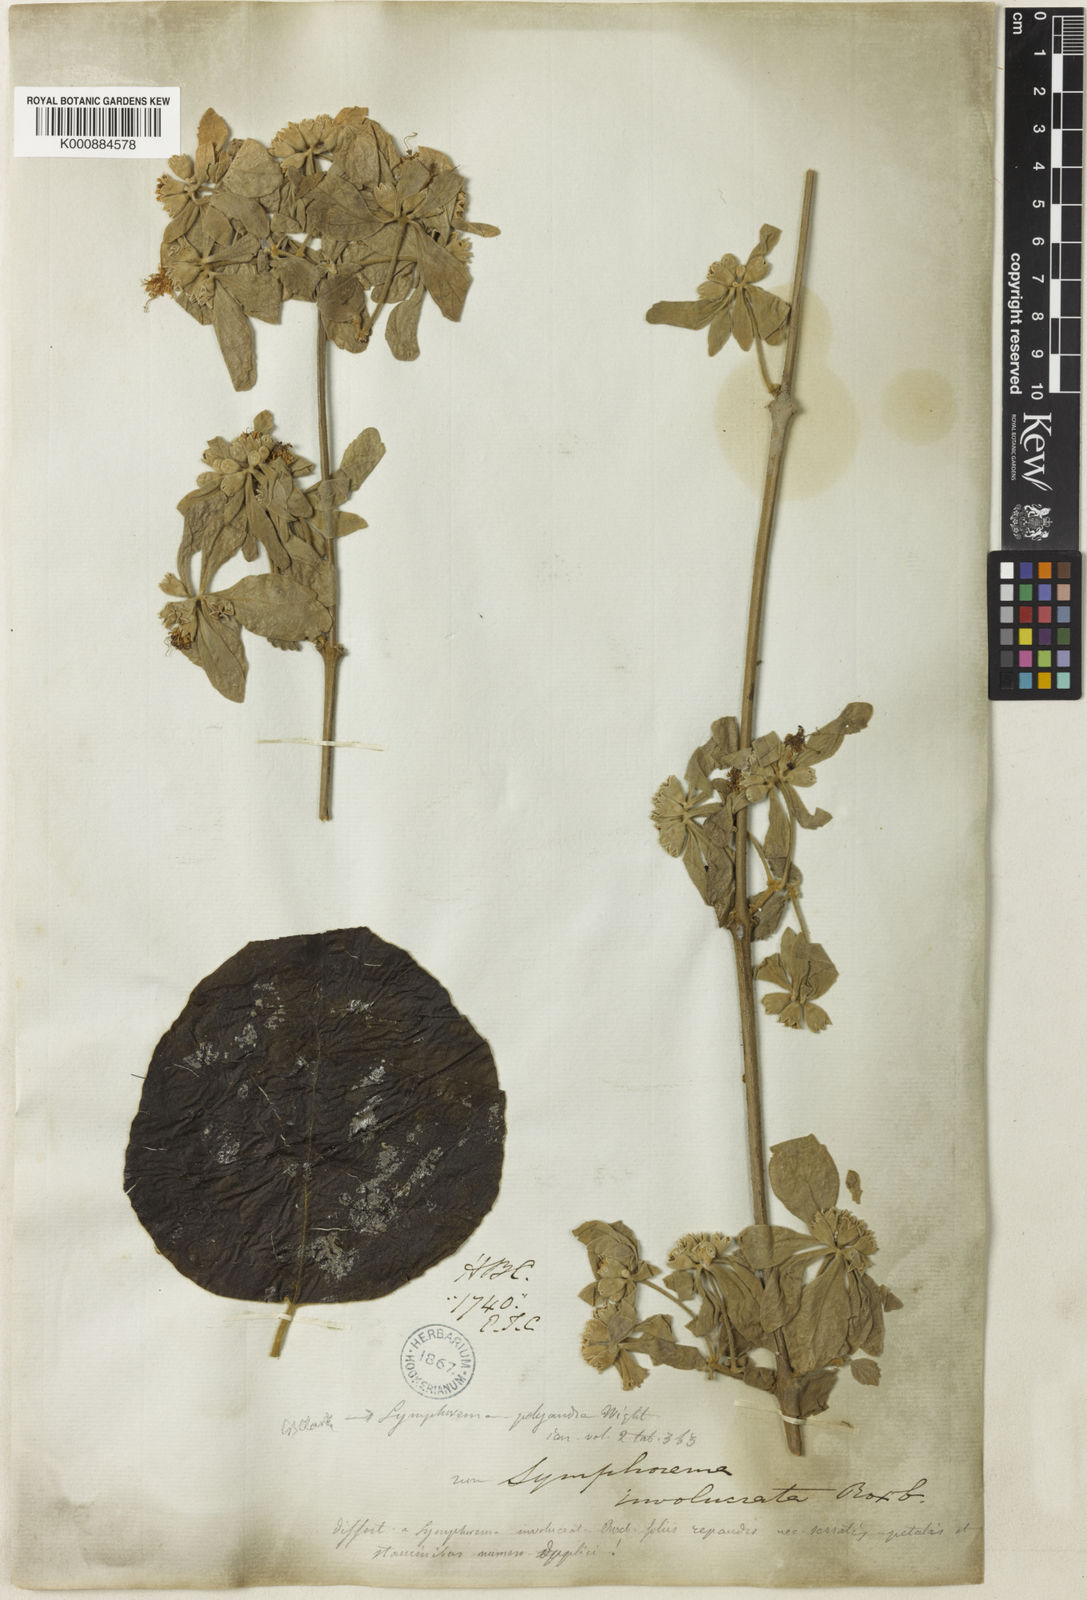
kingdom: Plantae
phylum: Tracheophyta
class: Magnoliopsida
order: Lamiales
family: Lamiaceae
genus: Symphorema
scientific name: Symphorema polyandrum
